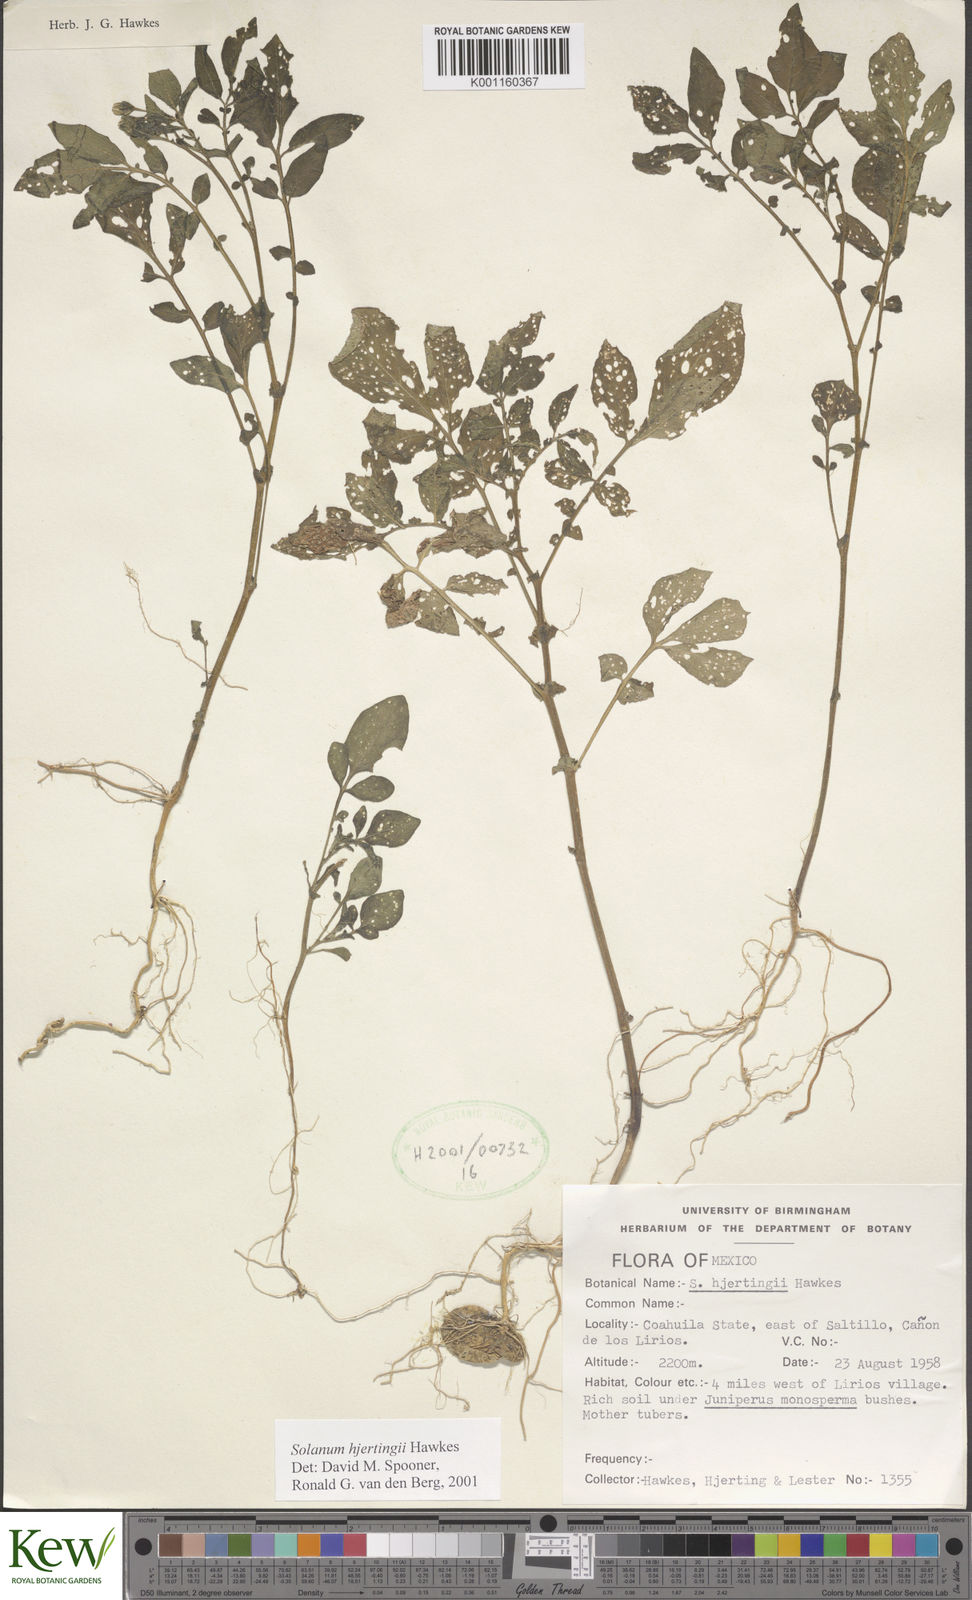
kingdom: Plantae
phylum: Tracheophyta
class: Magnoliopsida
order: Solanales
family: Solanaceae
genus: Solanum
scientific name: Solanum hjertingii
